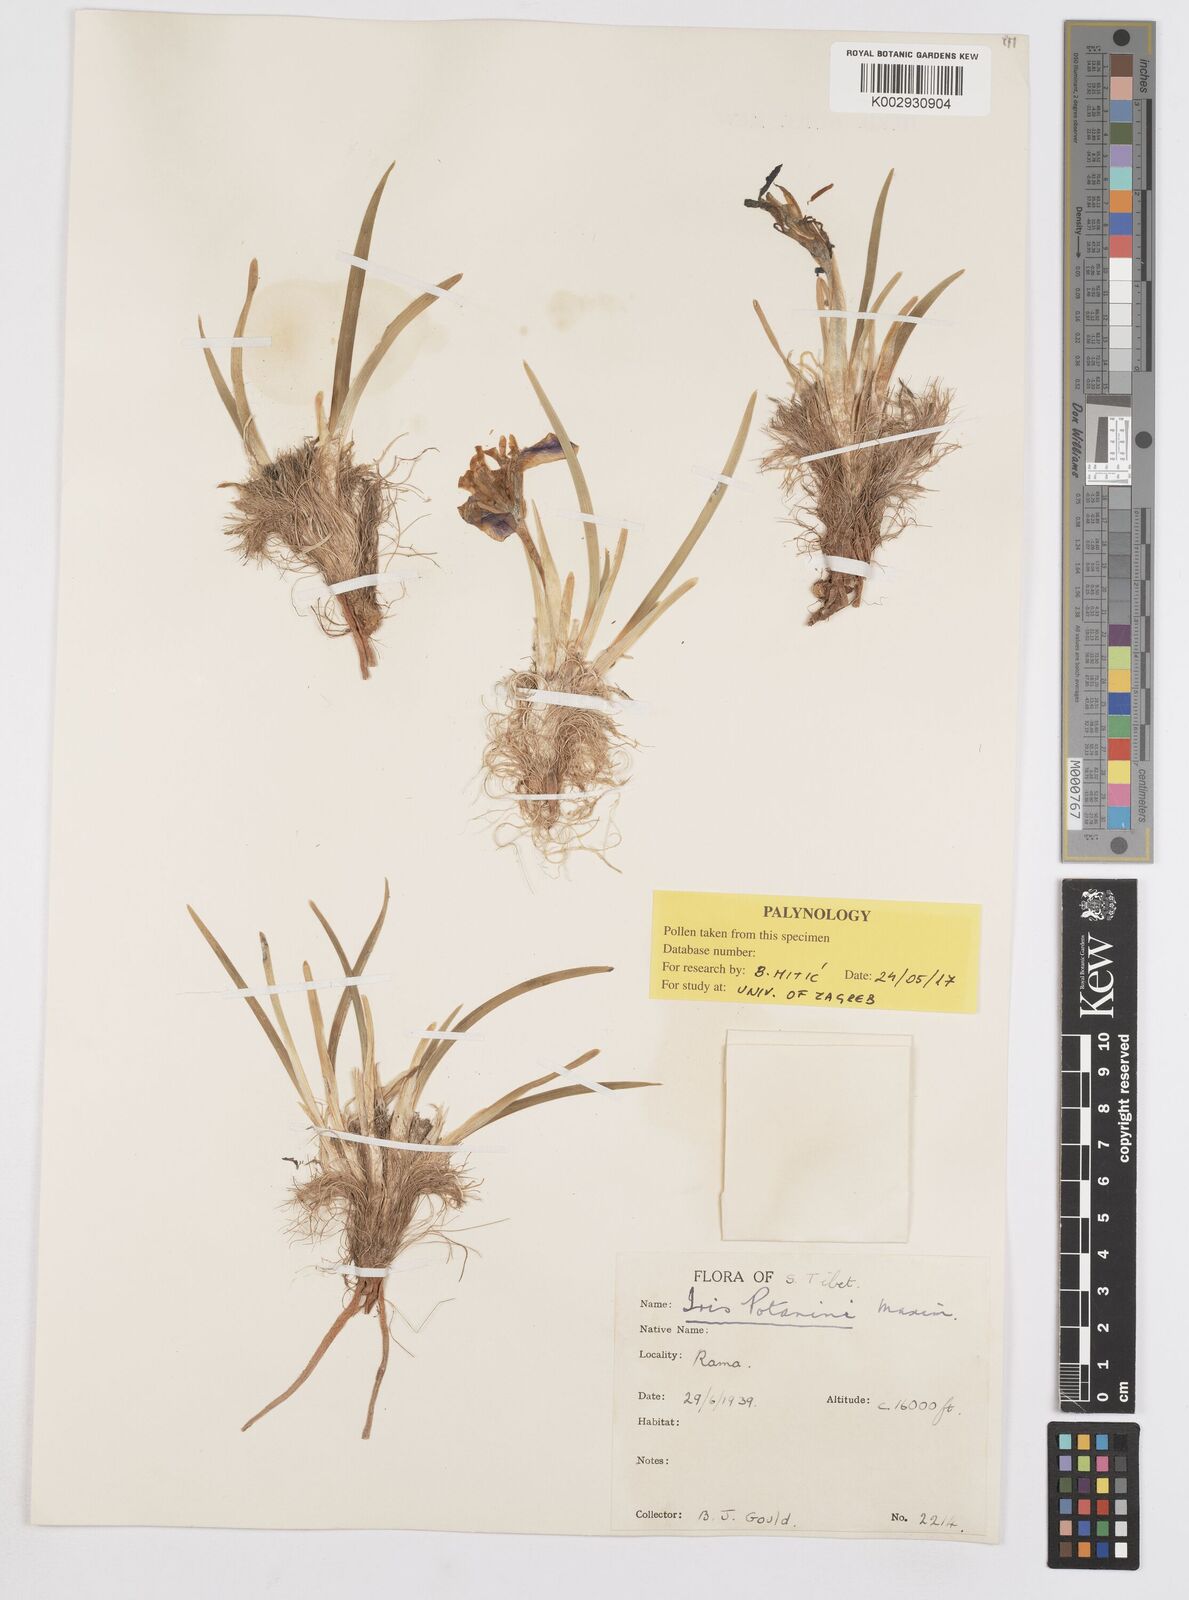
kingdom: Plantae
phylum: Tracheophyta
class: Liliopsida
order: Asparagales
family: Iridaceae
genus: Iris
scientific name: Iris potaninii
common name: Curl-sheath iris
